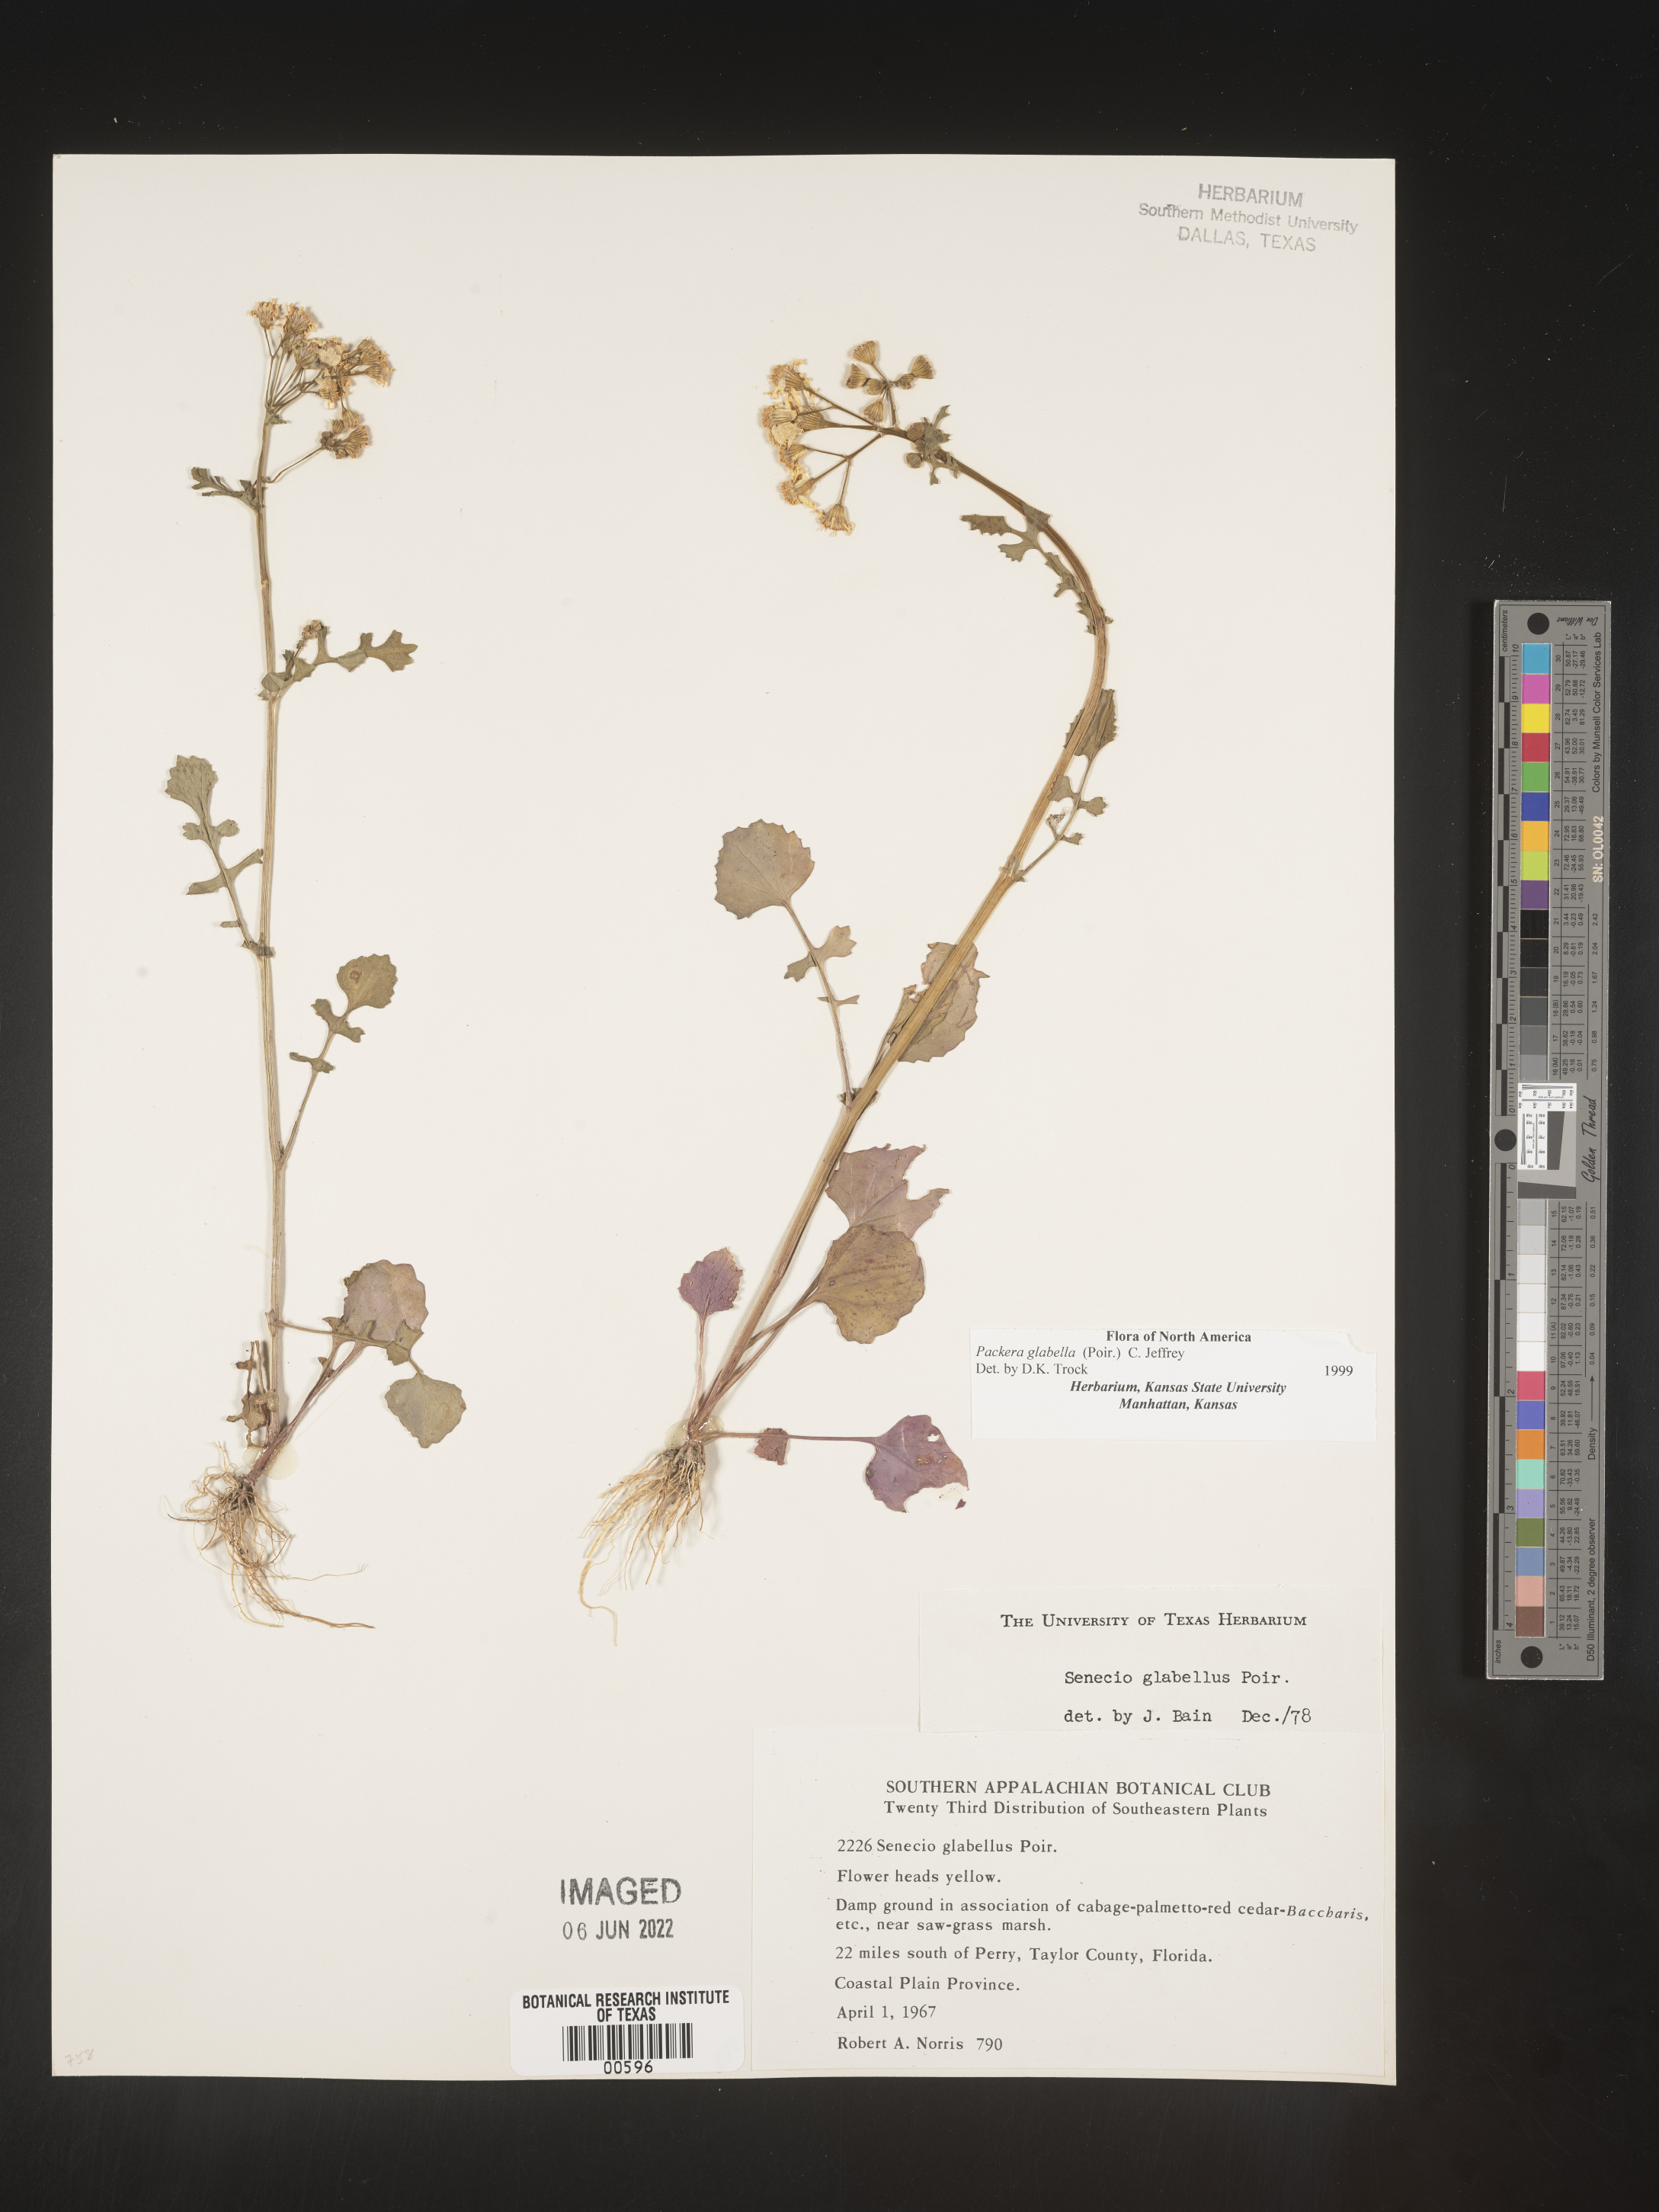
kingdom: Plantae
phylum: Tracheophyta
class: Magnoliopsida
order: Asterales
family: Asteraceae
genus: Packera
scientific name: Packera glabella
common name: Butterweed
